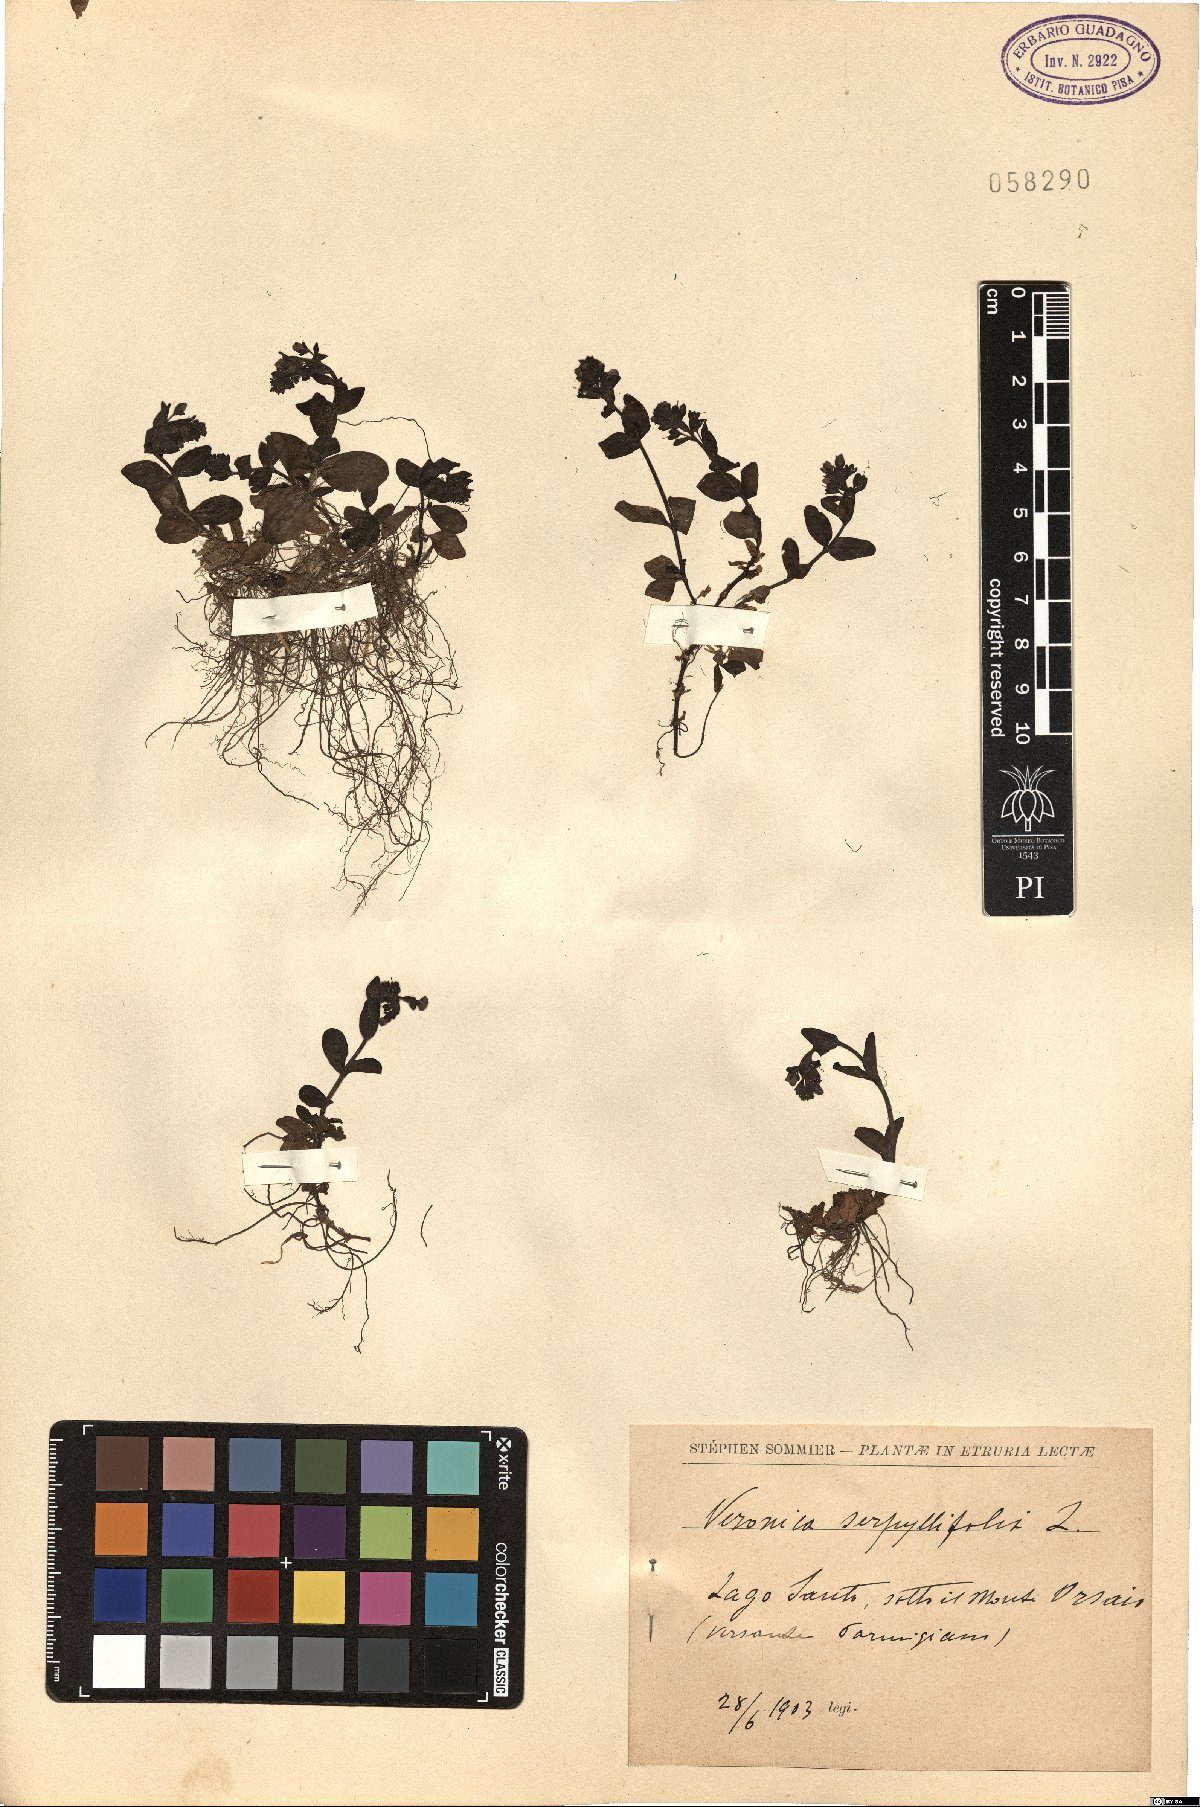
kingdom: Plantae
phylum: Tracheophyta
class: Magnoliopsida
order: Lamiales
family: Plantaginaceae
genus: Veronica
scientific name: Veronica serpyllifolia
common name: Thyme-leaved speedwell
